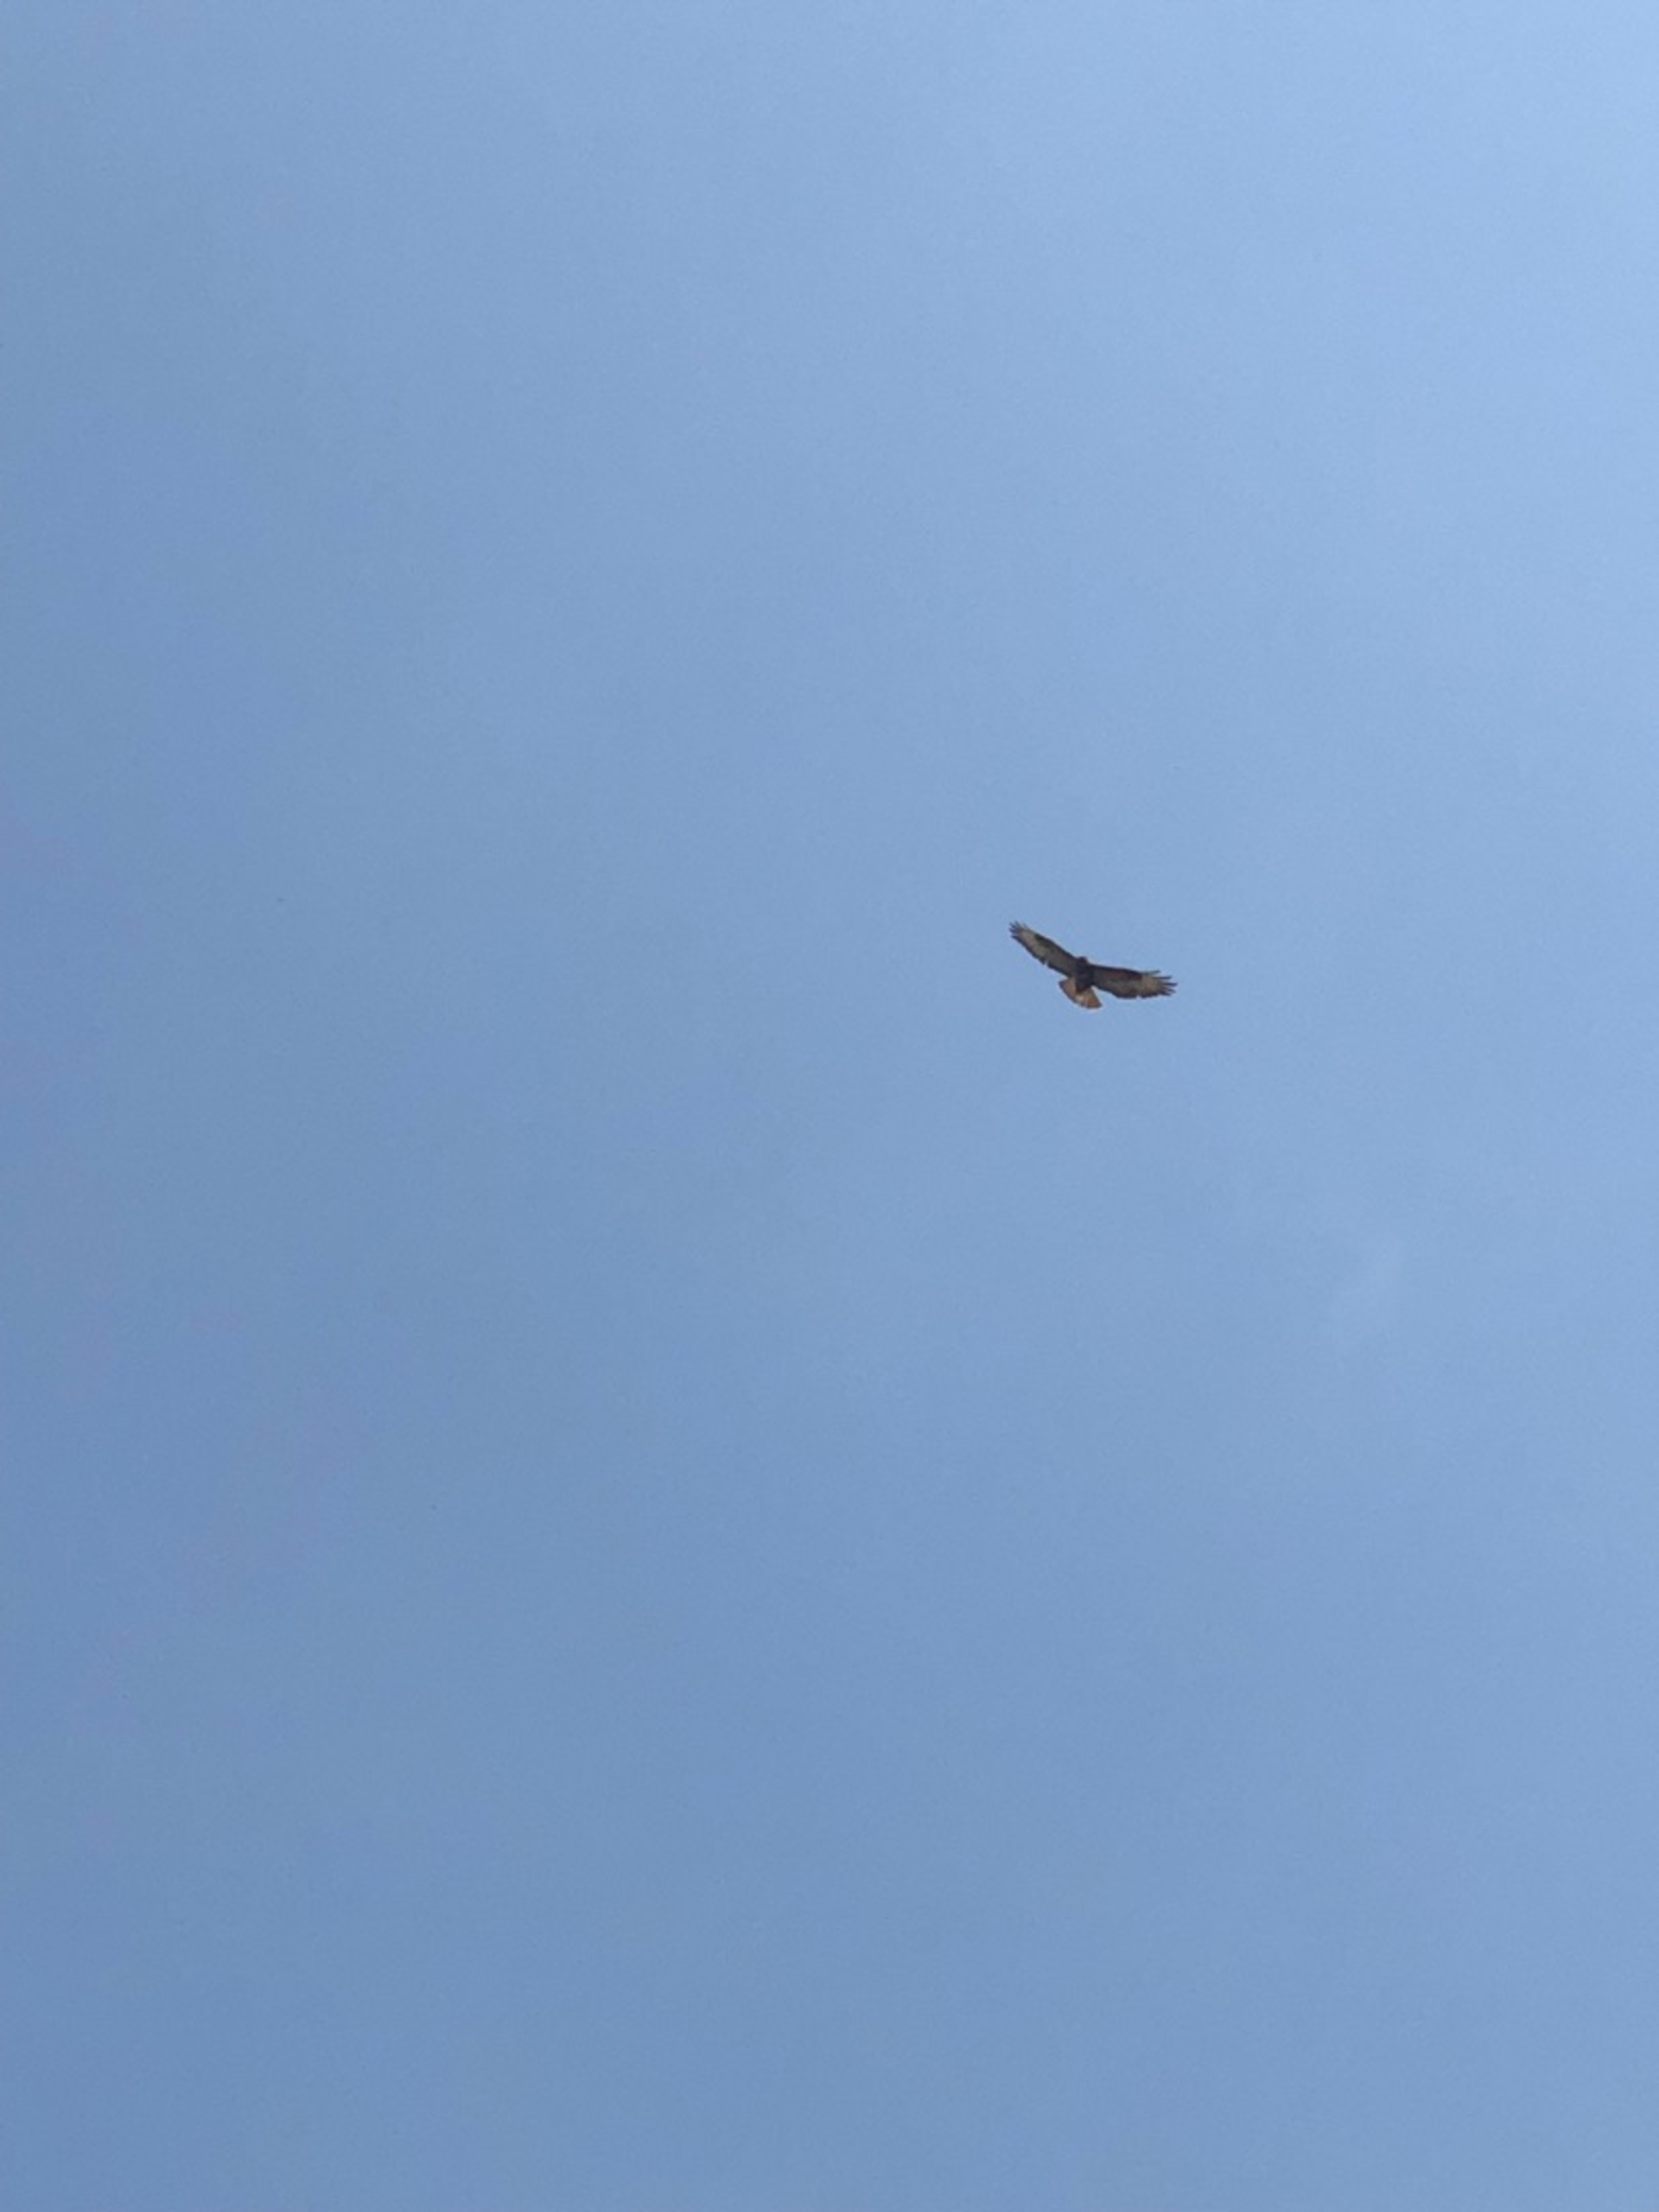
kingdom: Animalia
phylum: Chordata
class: Aves
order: Accipitriformes
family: Accipitridae
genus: Buteo
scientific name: Buteo buteo
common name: Musvåge
